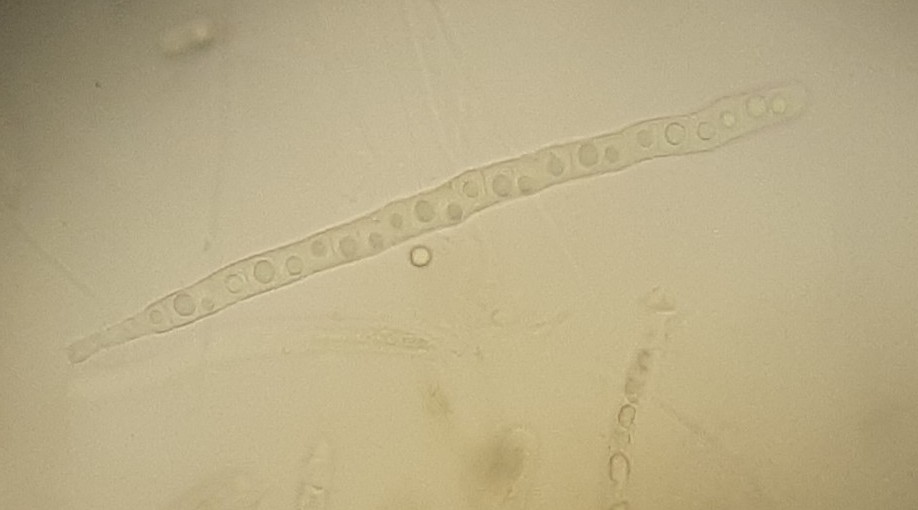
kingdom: Fungi
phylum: Ascomycota
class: Sordariomycetes
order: Xylariales
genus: Melomastia
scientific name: Melomastia mastoidea
